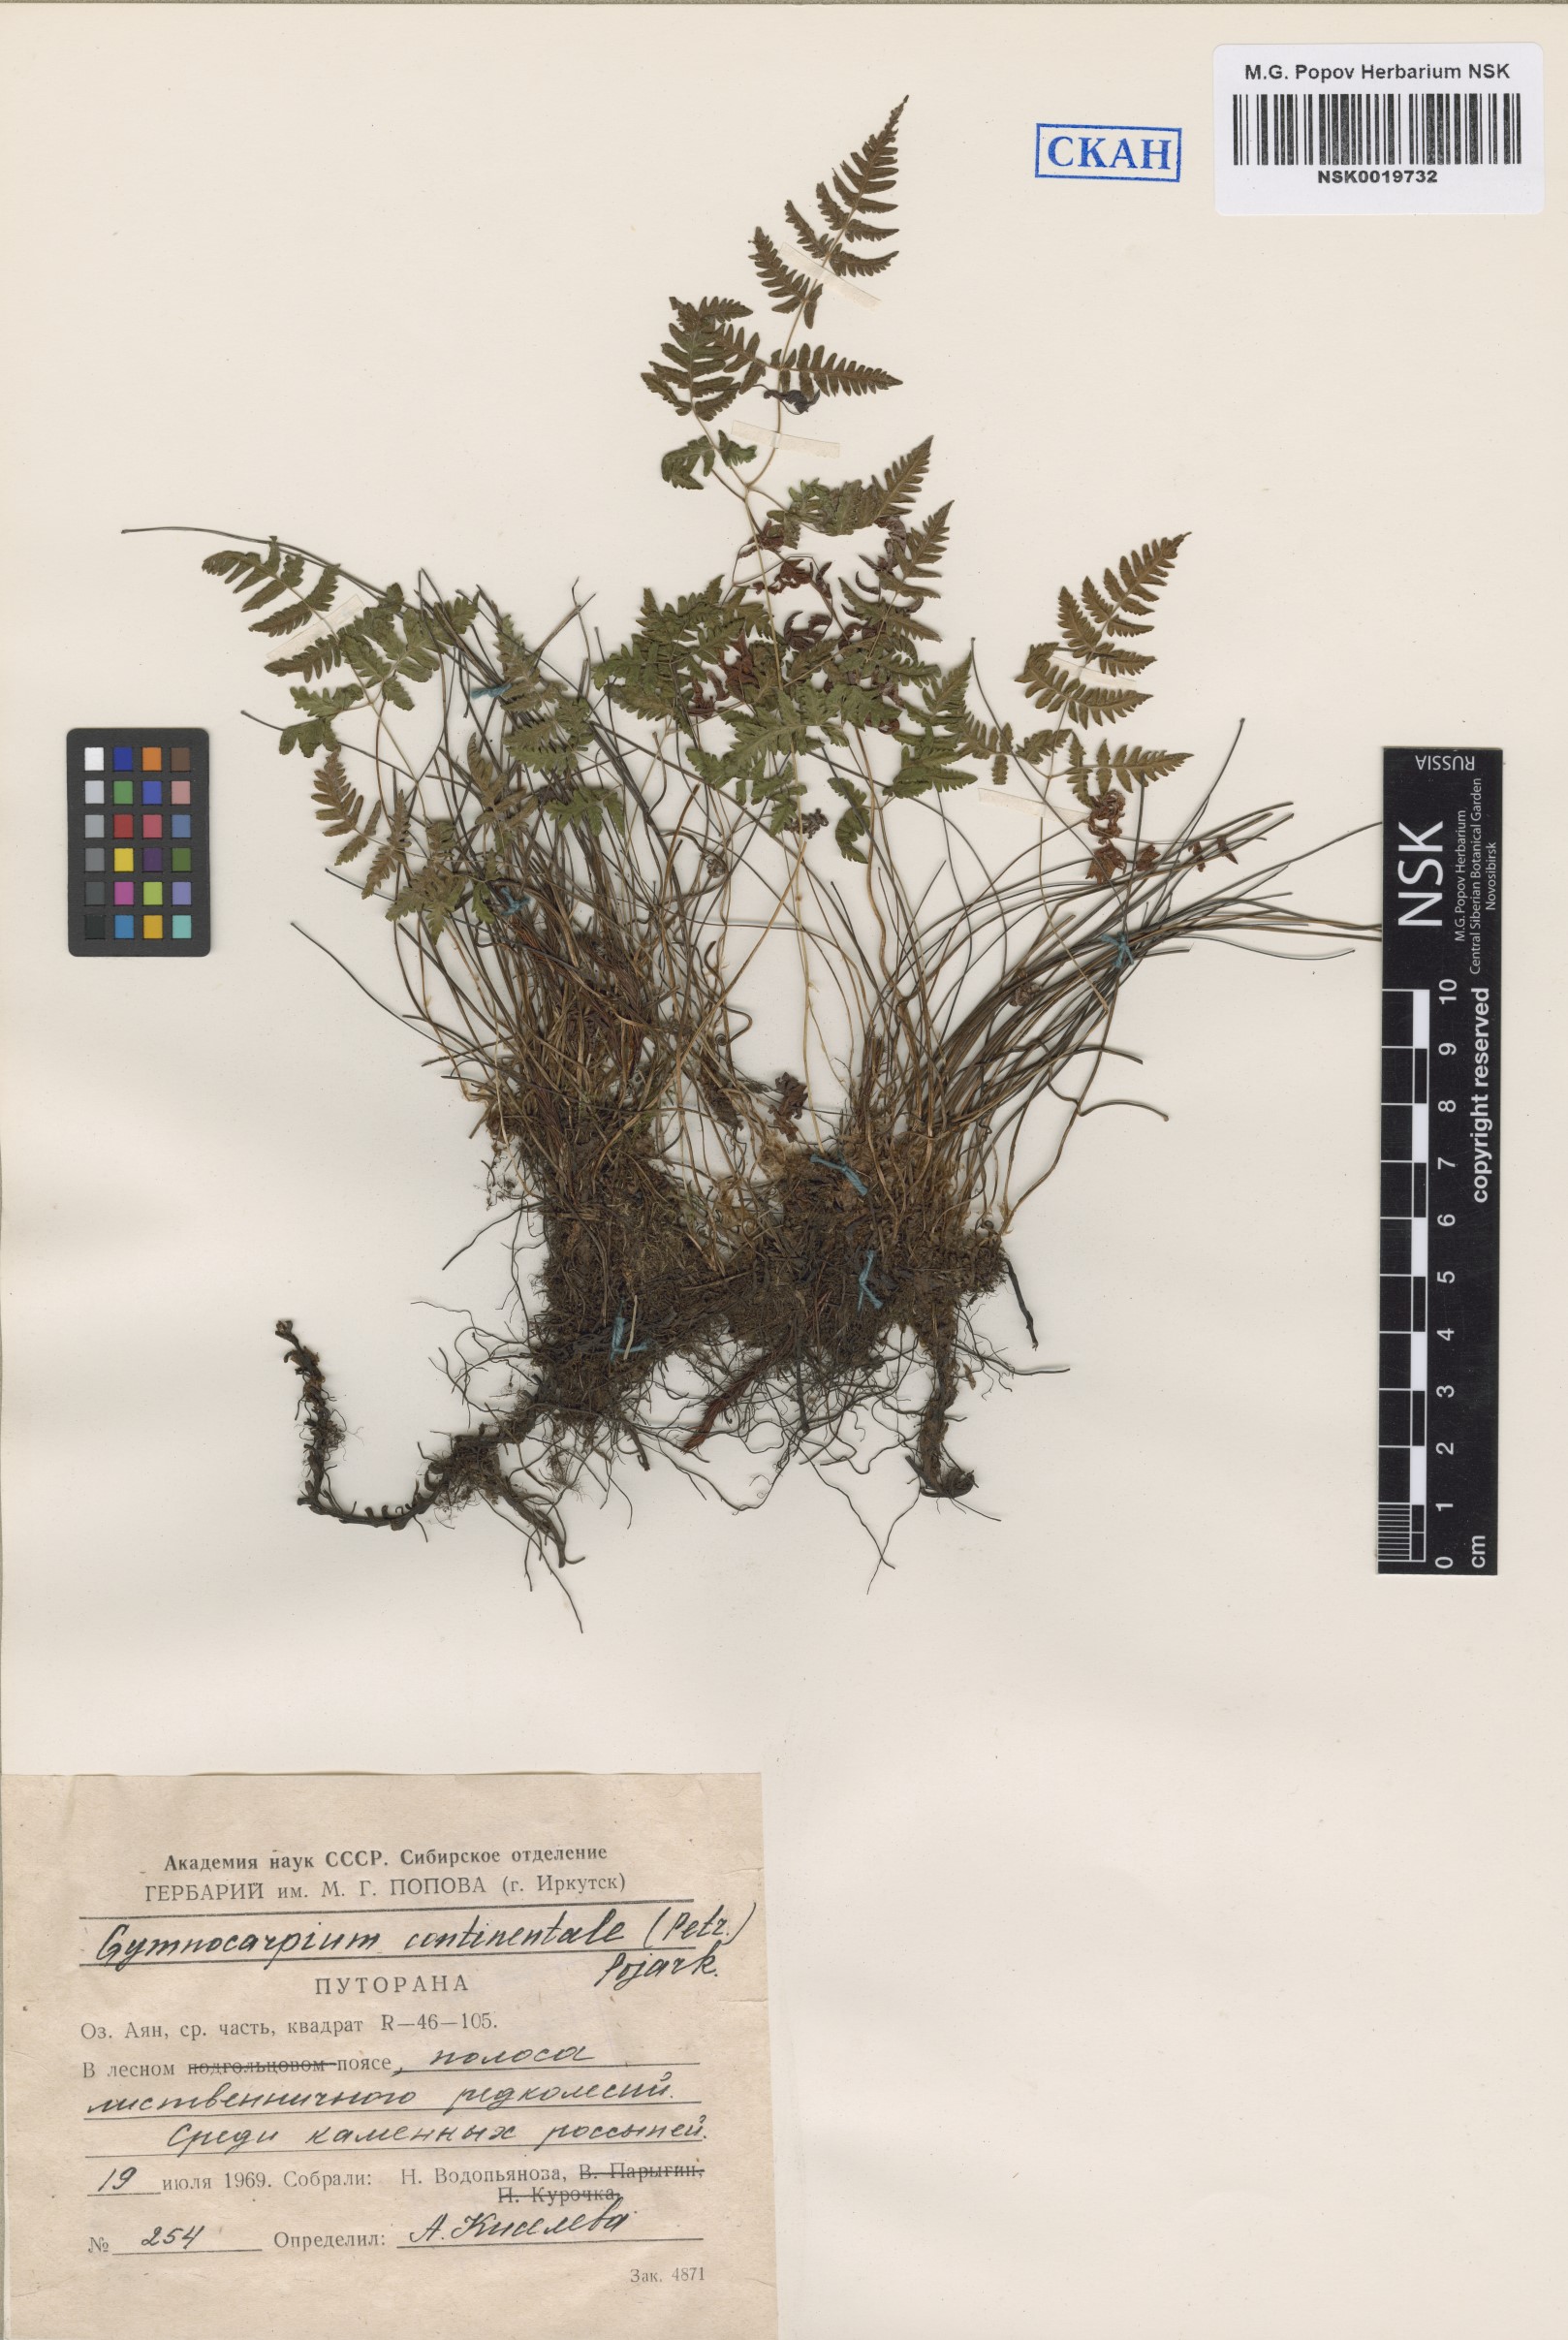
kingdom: Plantae
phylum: Tracheophyta
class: Polypodiopsida
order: Polypodiales
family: Cystopteridaceae
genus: Gymnocarpium
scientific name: Gymnocarpium continentale
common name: Asian oak fern
